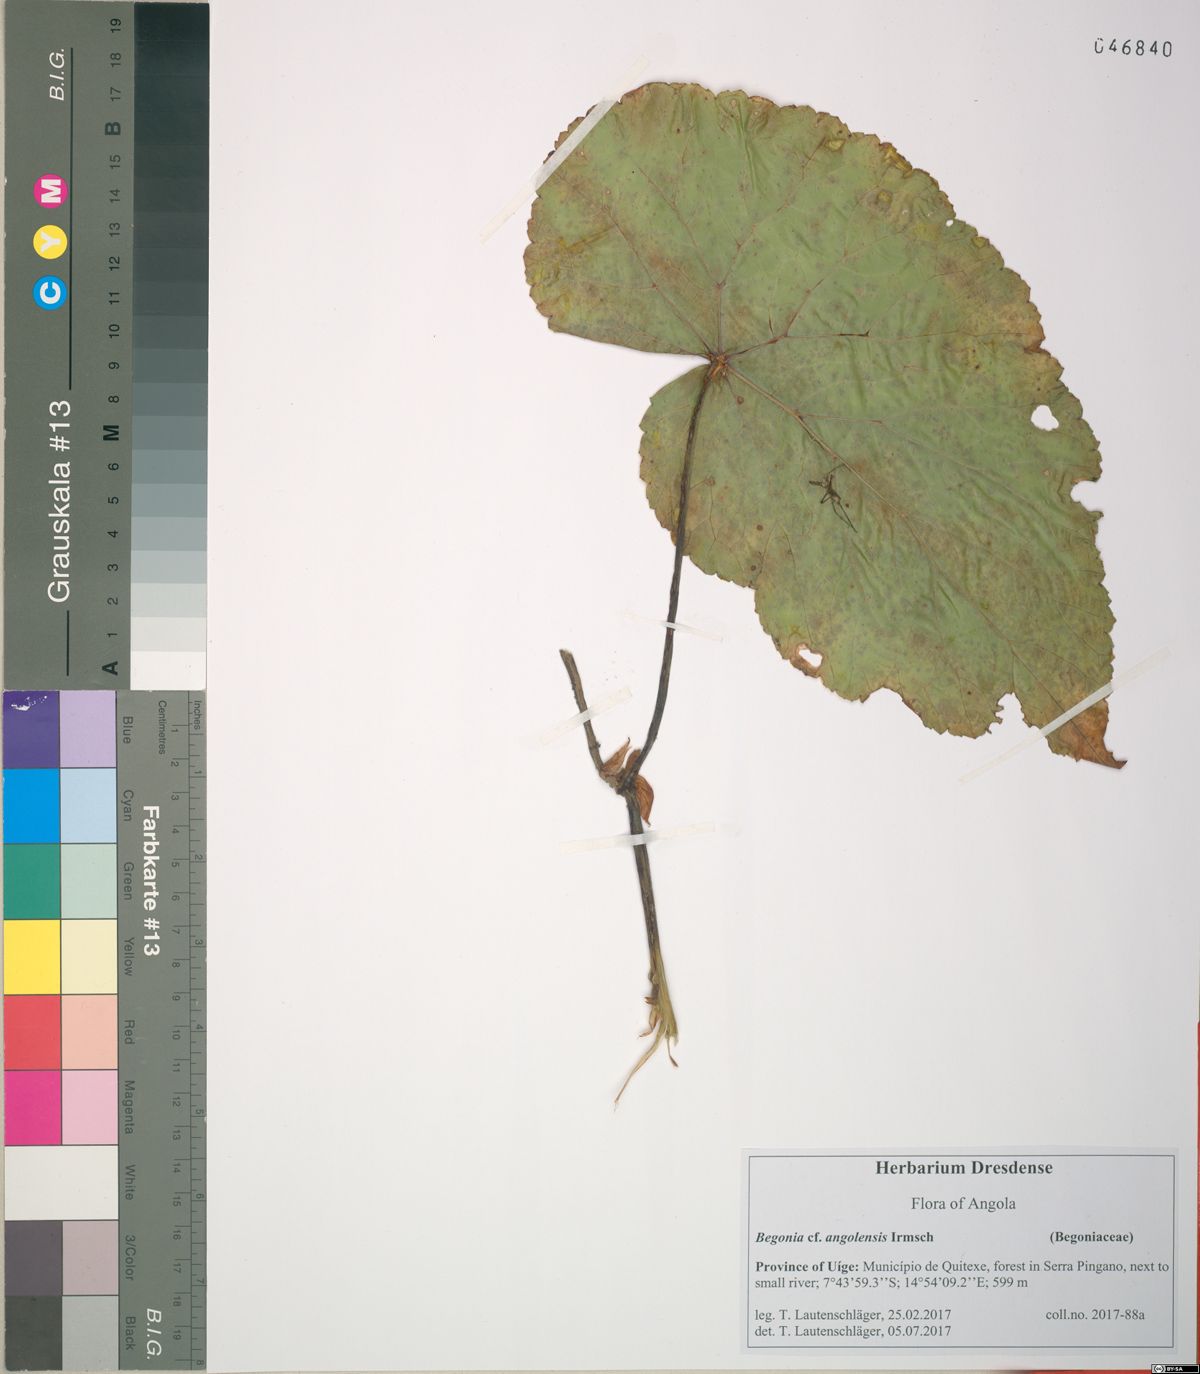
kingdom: Plantae
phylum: Tracheophyta
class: Magnoliopsida
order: Cucurbitales
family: Begoniaceae
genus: Begonia
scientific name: Begonia johnstoni
